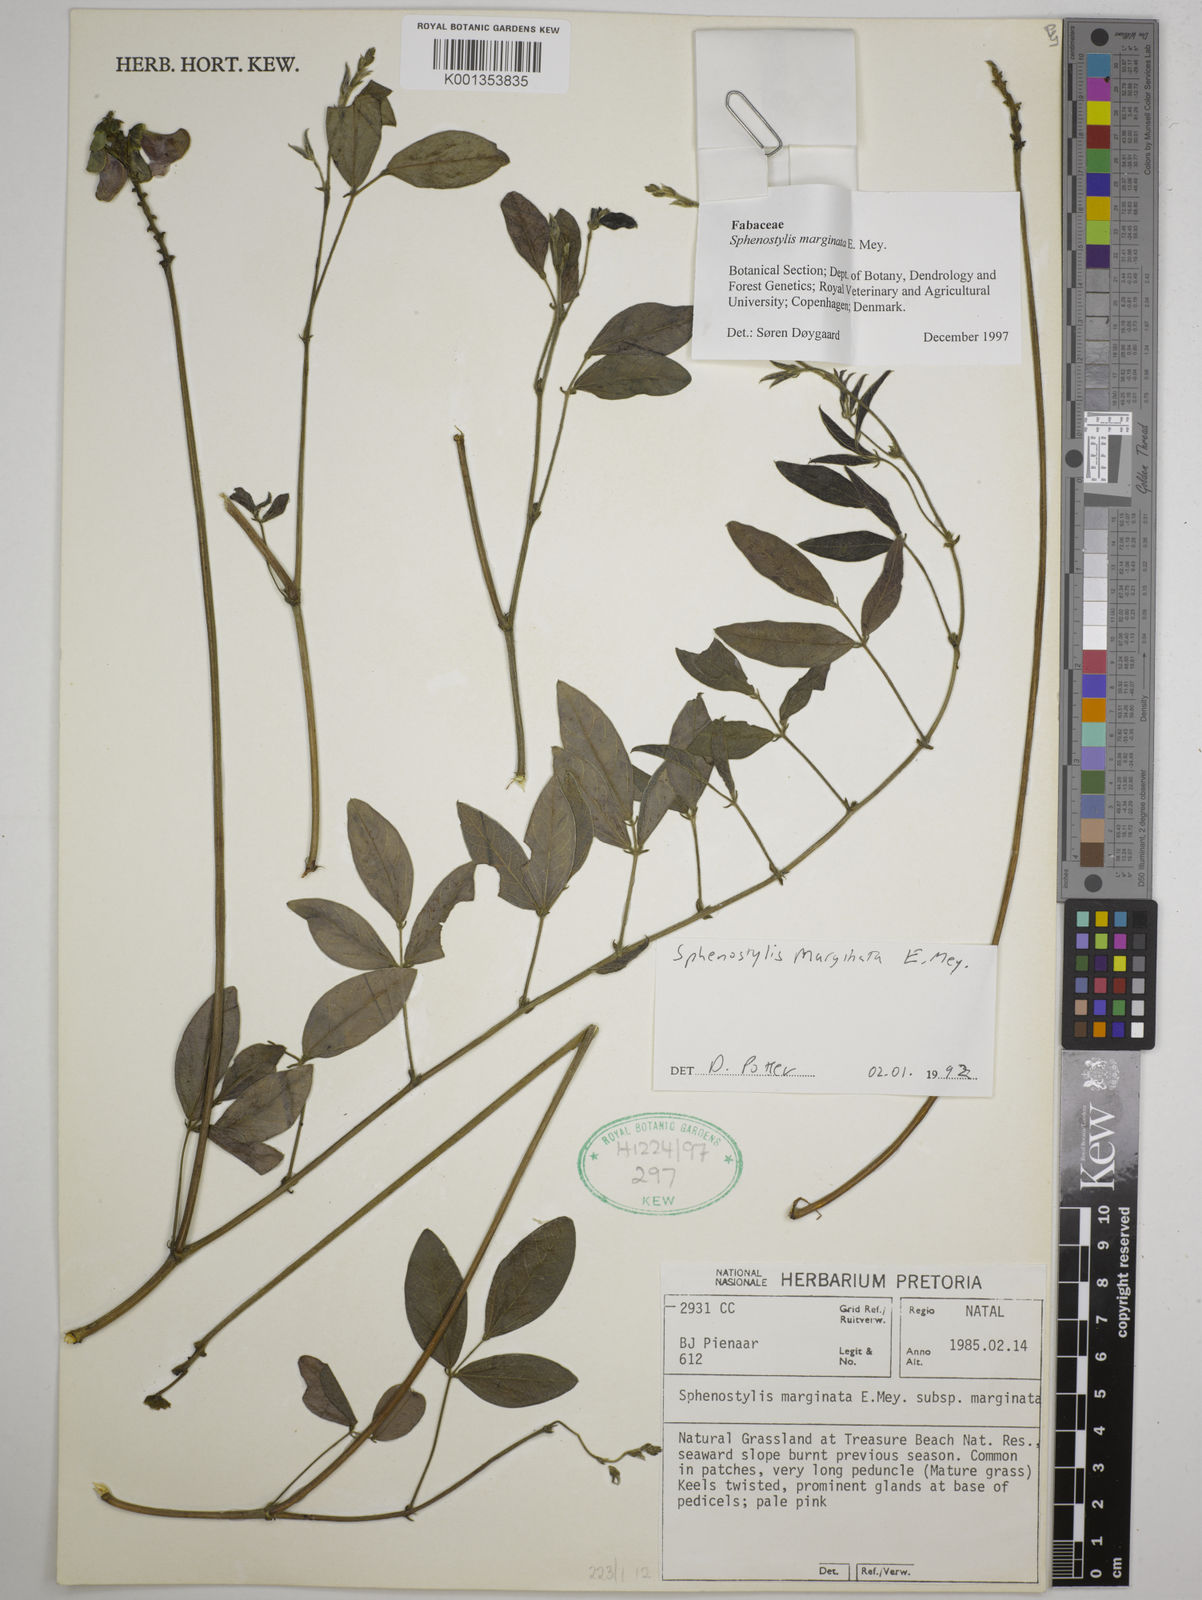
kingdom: Plantae
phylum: Tracheophyta
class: Magnoliopsida
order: Fabales
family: Fabaceae
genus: Sphenostylis
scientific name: Sphenostylis marginata
